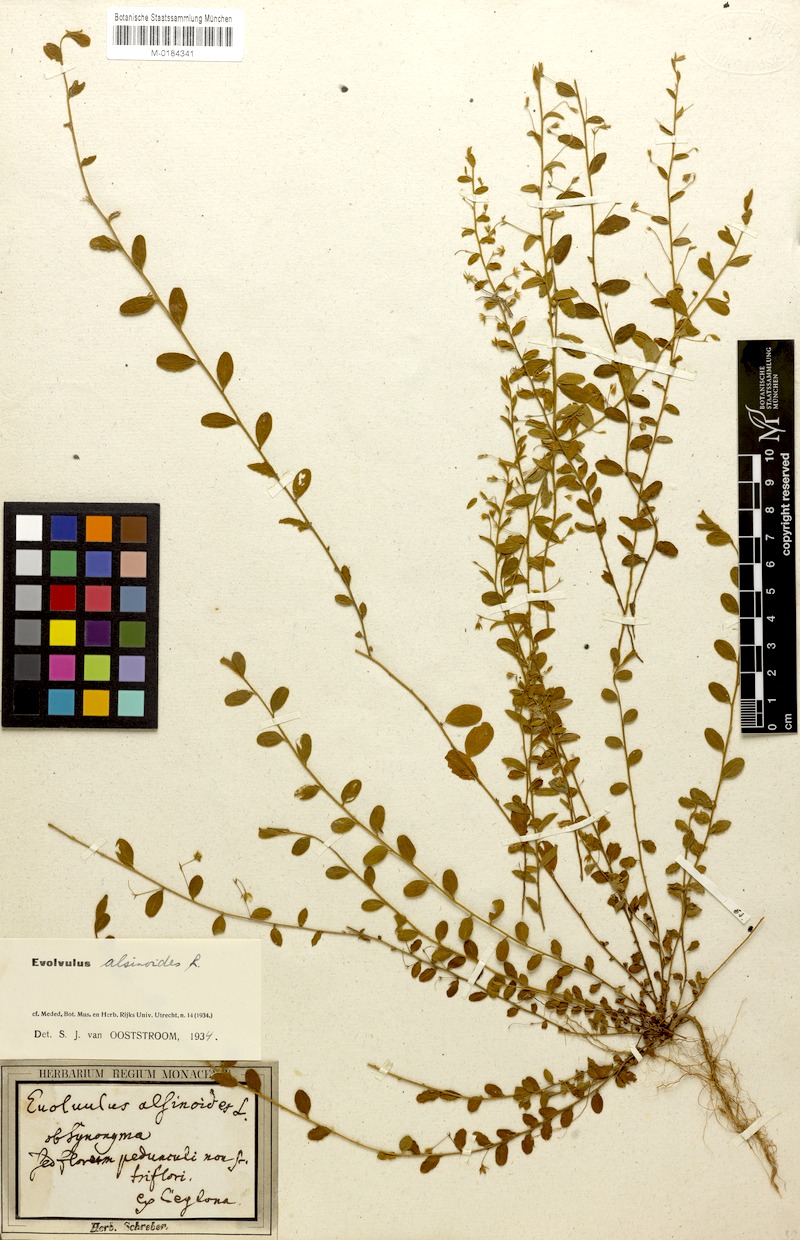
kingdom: Plantae
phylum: Tracheophyta
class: Magnoliopsida
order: Solanales
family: Convolvulaceae
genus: Evolvulus
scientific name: Evolvulus alsinoides
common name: Slender dwarf morning-glory
